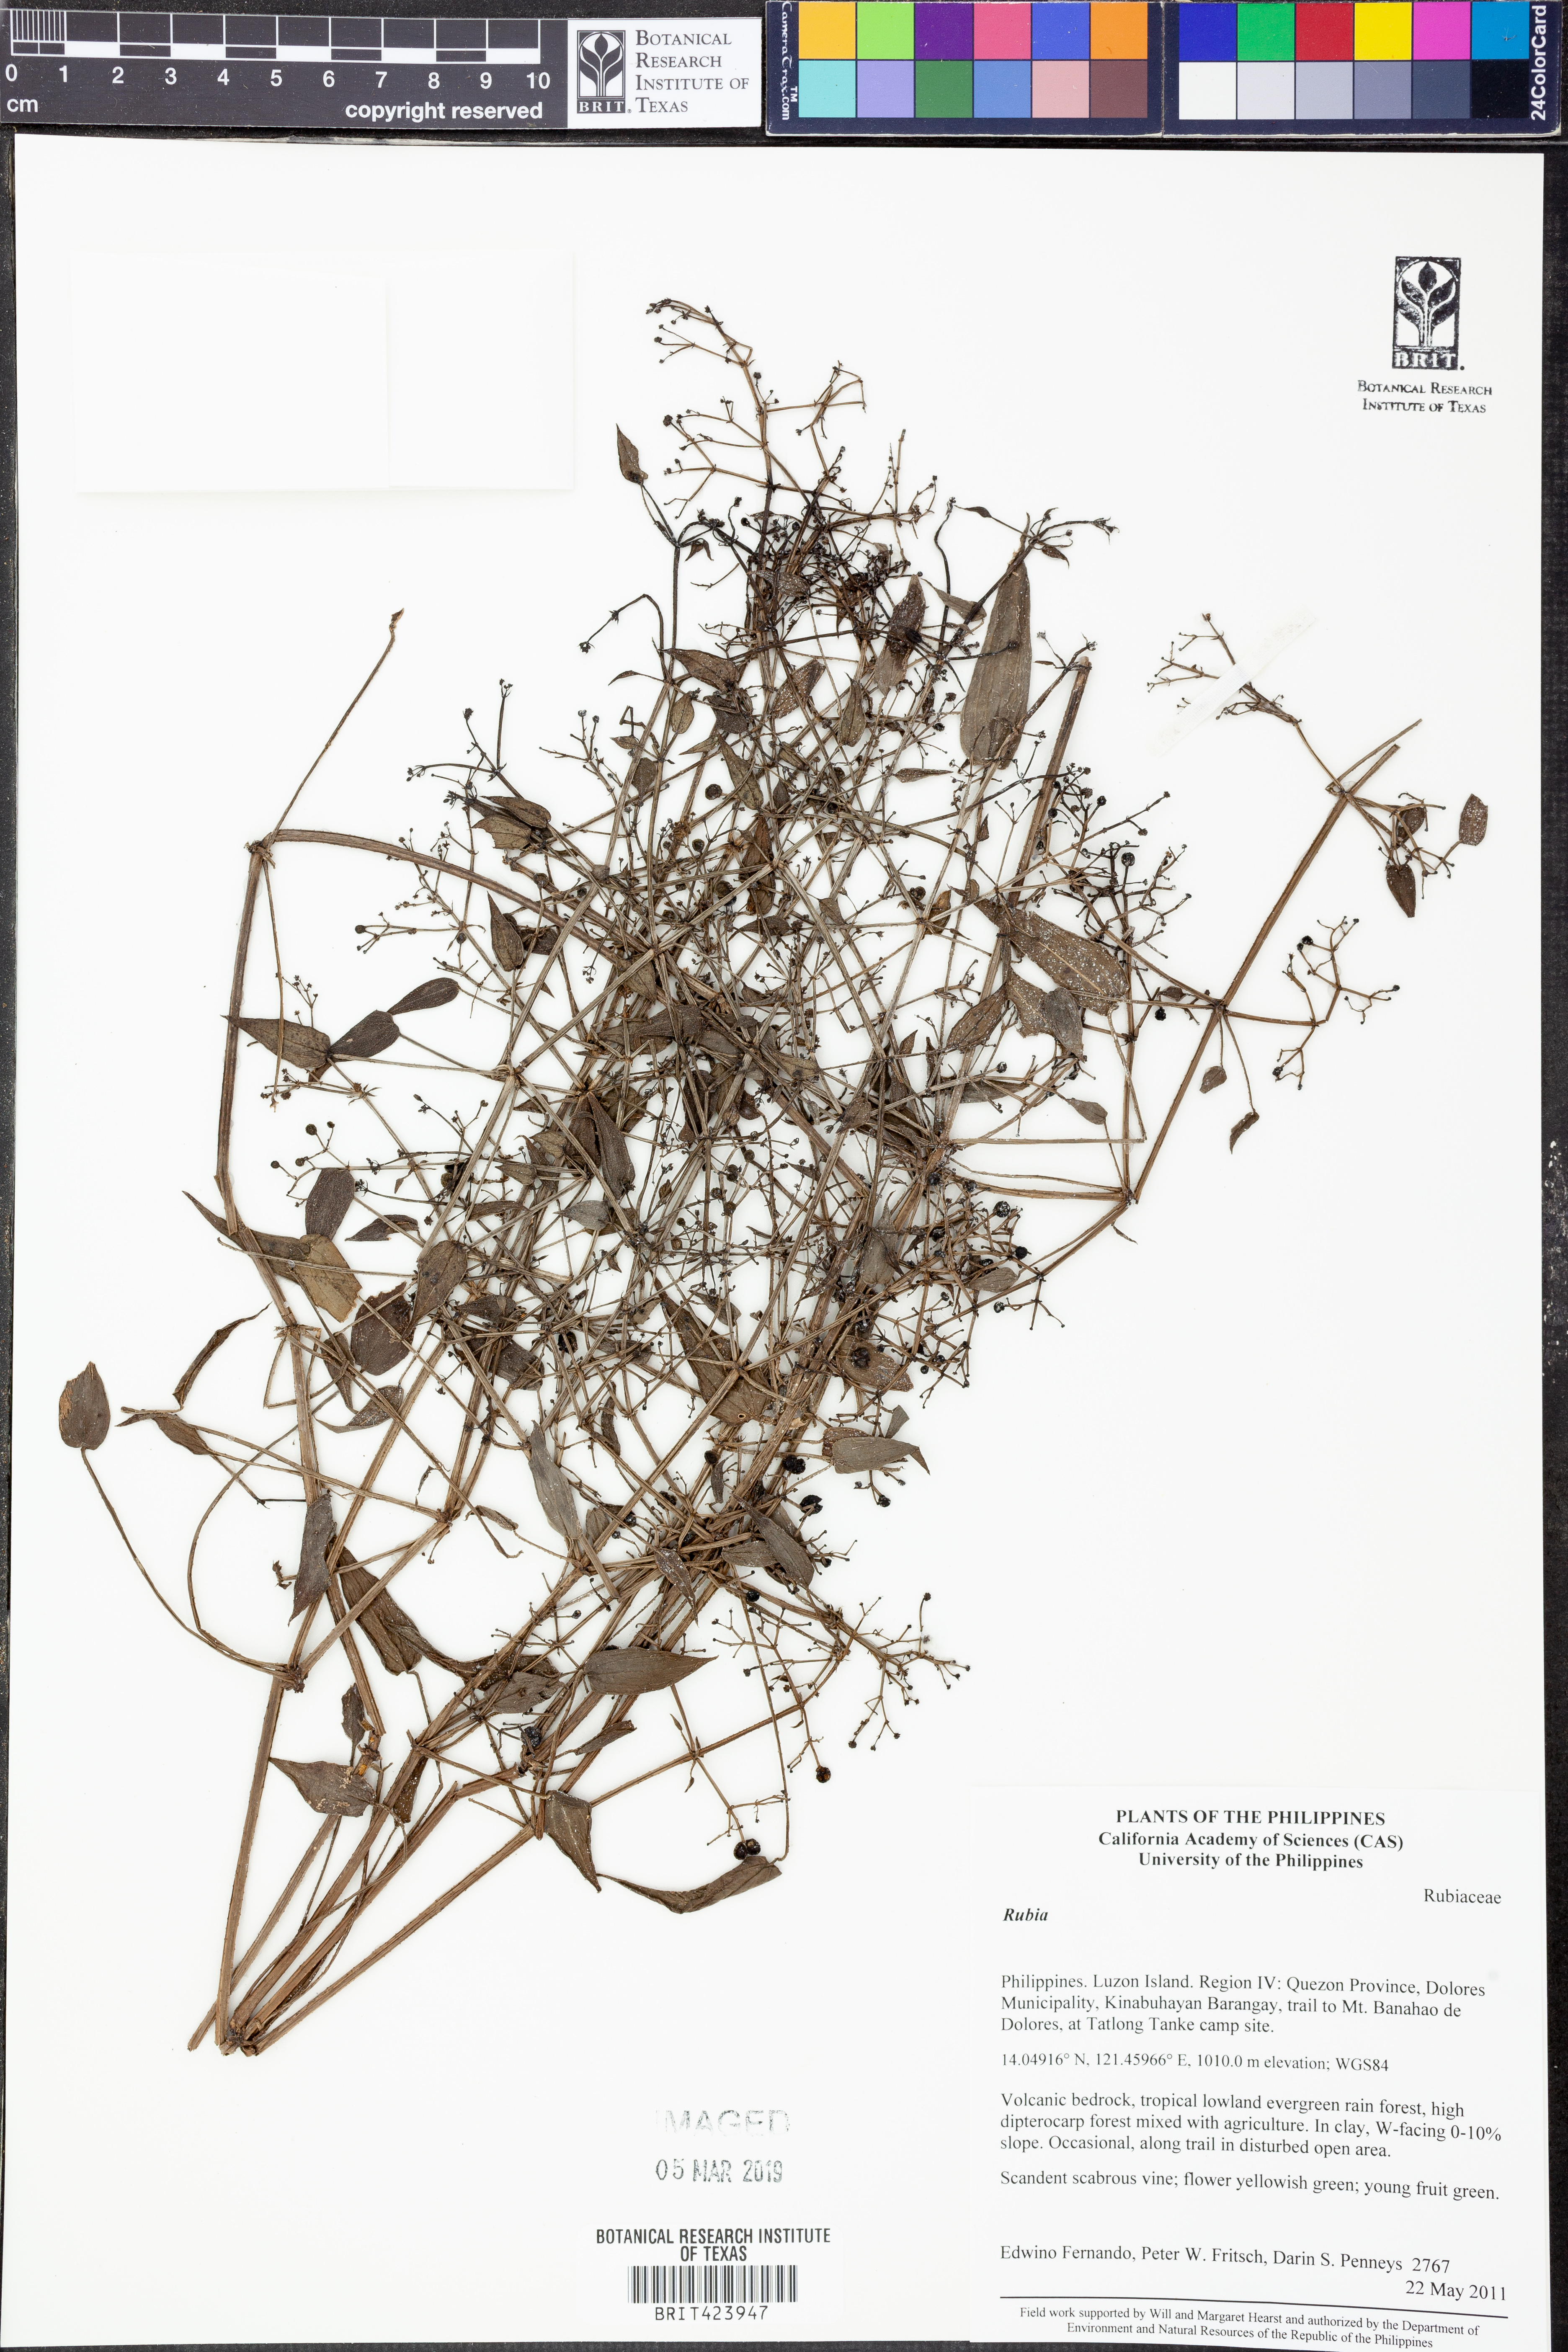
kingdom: Plantae
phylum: Tracheophyta
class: Magnoliopsida
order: Gentianales
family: Rubiaceae
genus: Rubia
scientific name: Rubia
